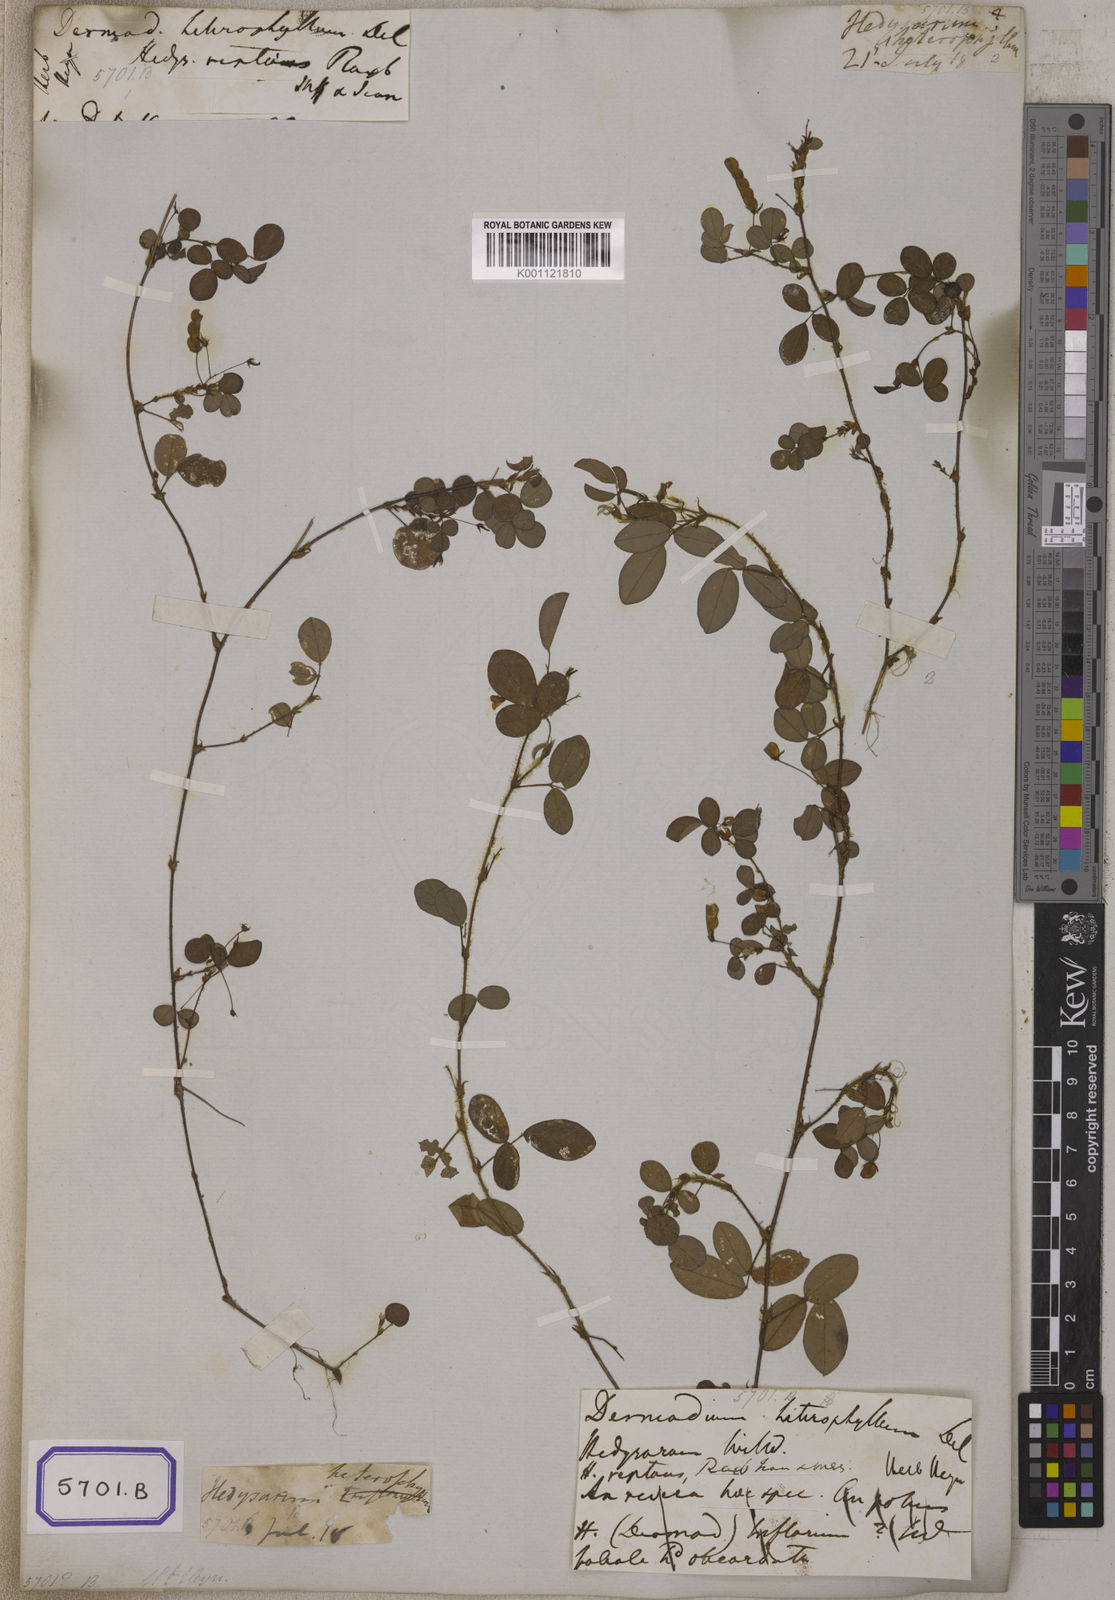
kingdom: Plantae
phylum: Tracheophyta
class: Magnoliopsida
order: Fabales
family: Fabaceae
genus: Desmodium
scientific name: Desmodium
